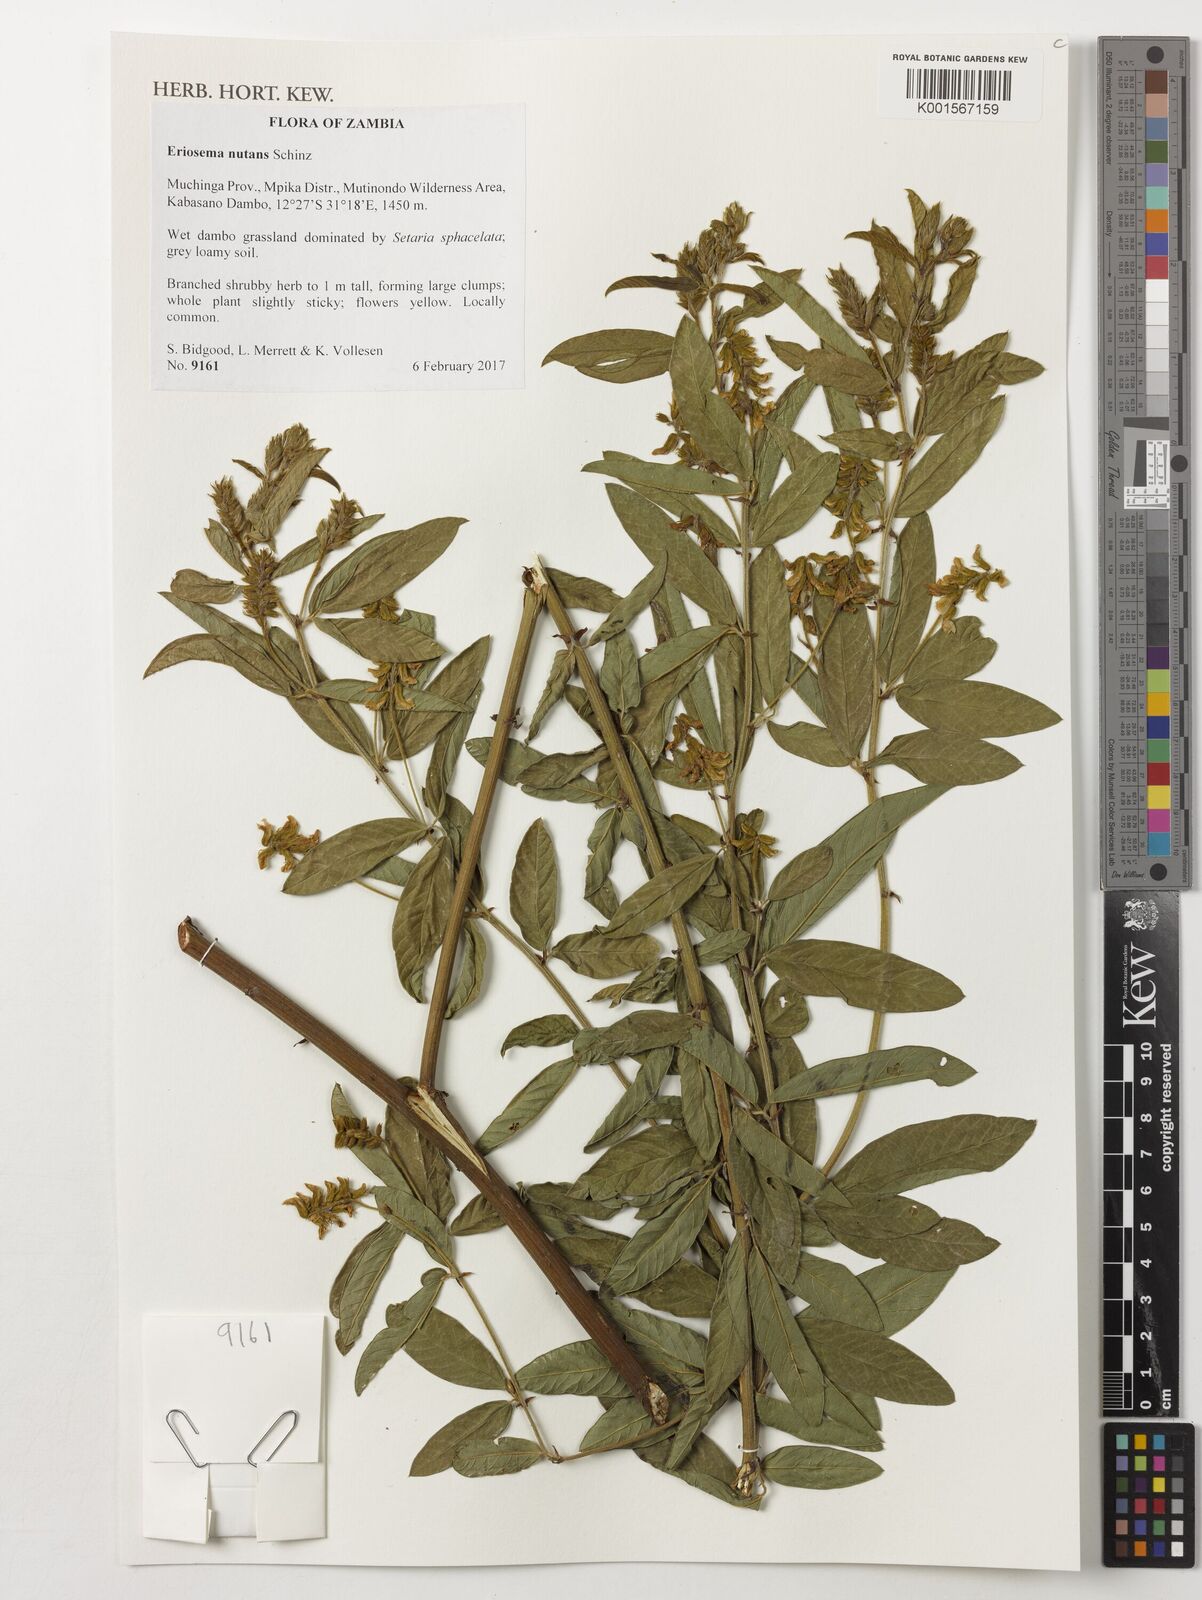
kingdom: Plantae
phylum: Tracheophyta
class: Magnoliopsida
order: Fabales
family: Fabaceae
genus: Eriosema
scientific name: Eriosema nutans
